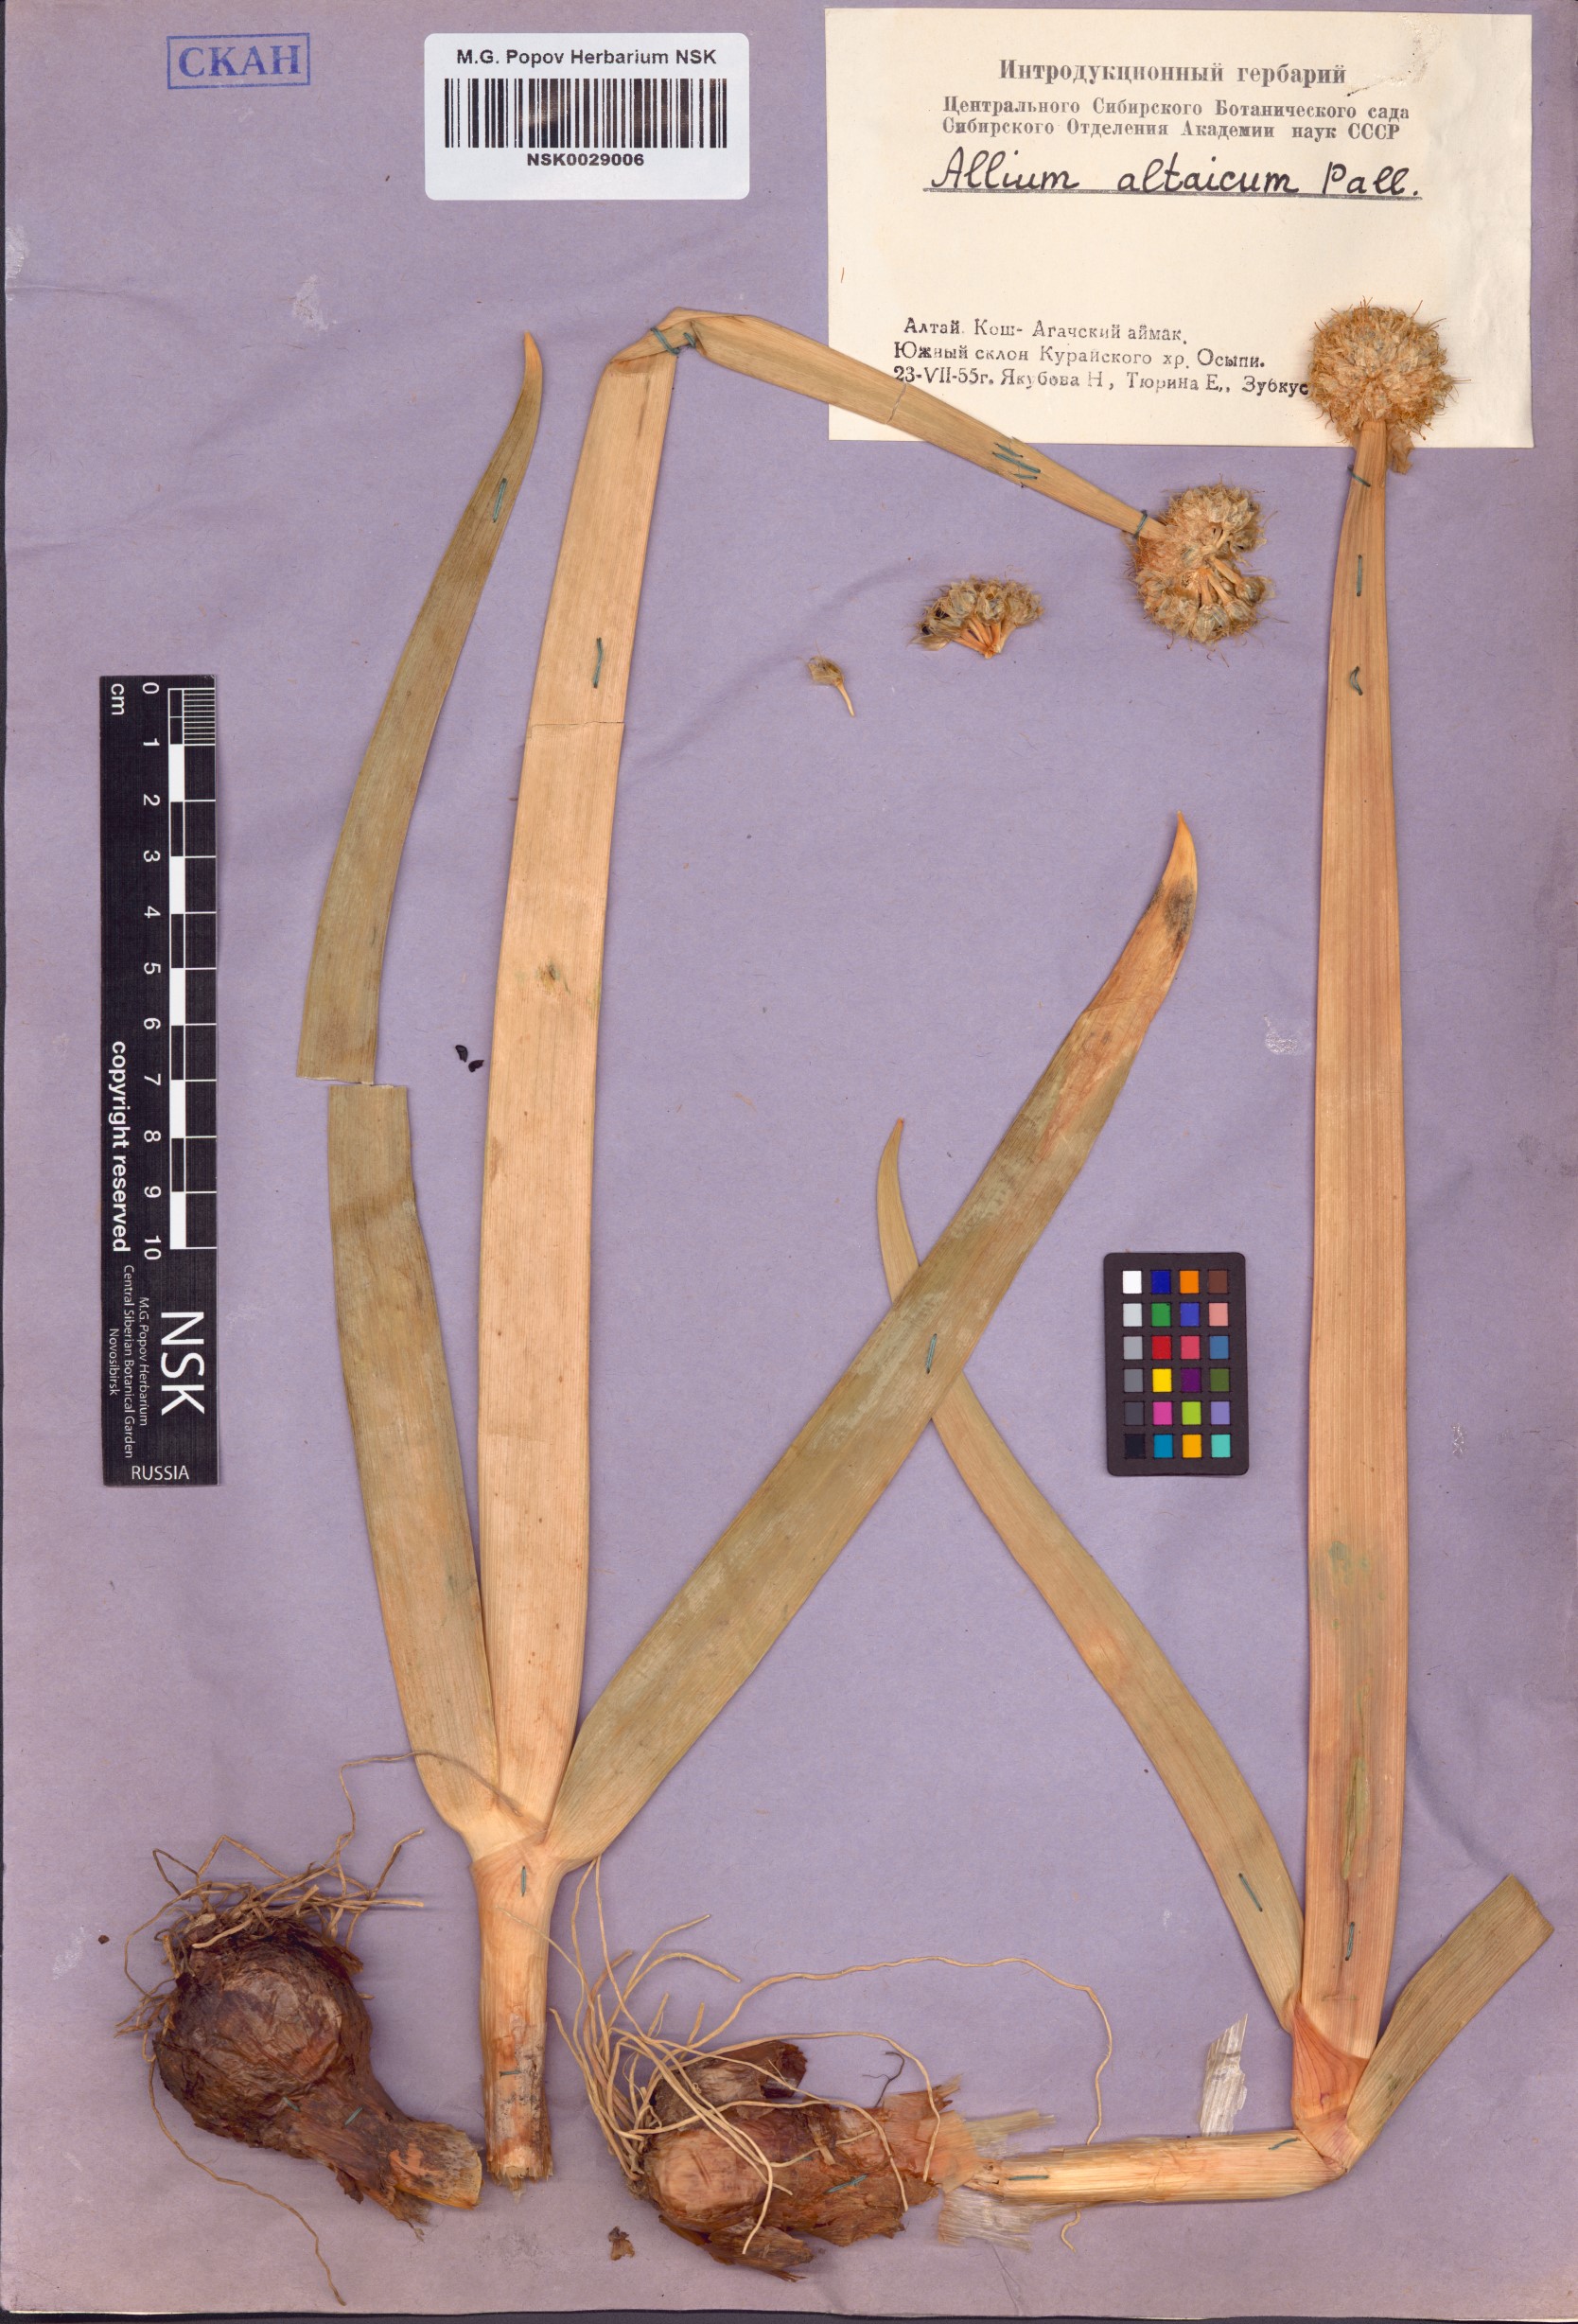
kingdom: Plantae
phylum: Tracheophyta
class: Liliopsida
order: Asparagales
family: Amaryllidaceae
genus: Allium
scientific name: Allium altaicum
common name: Altai onion
